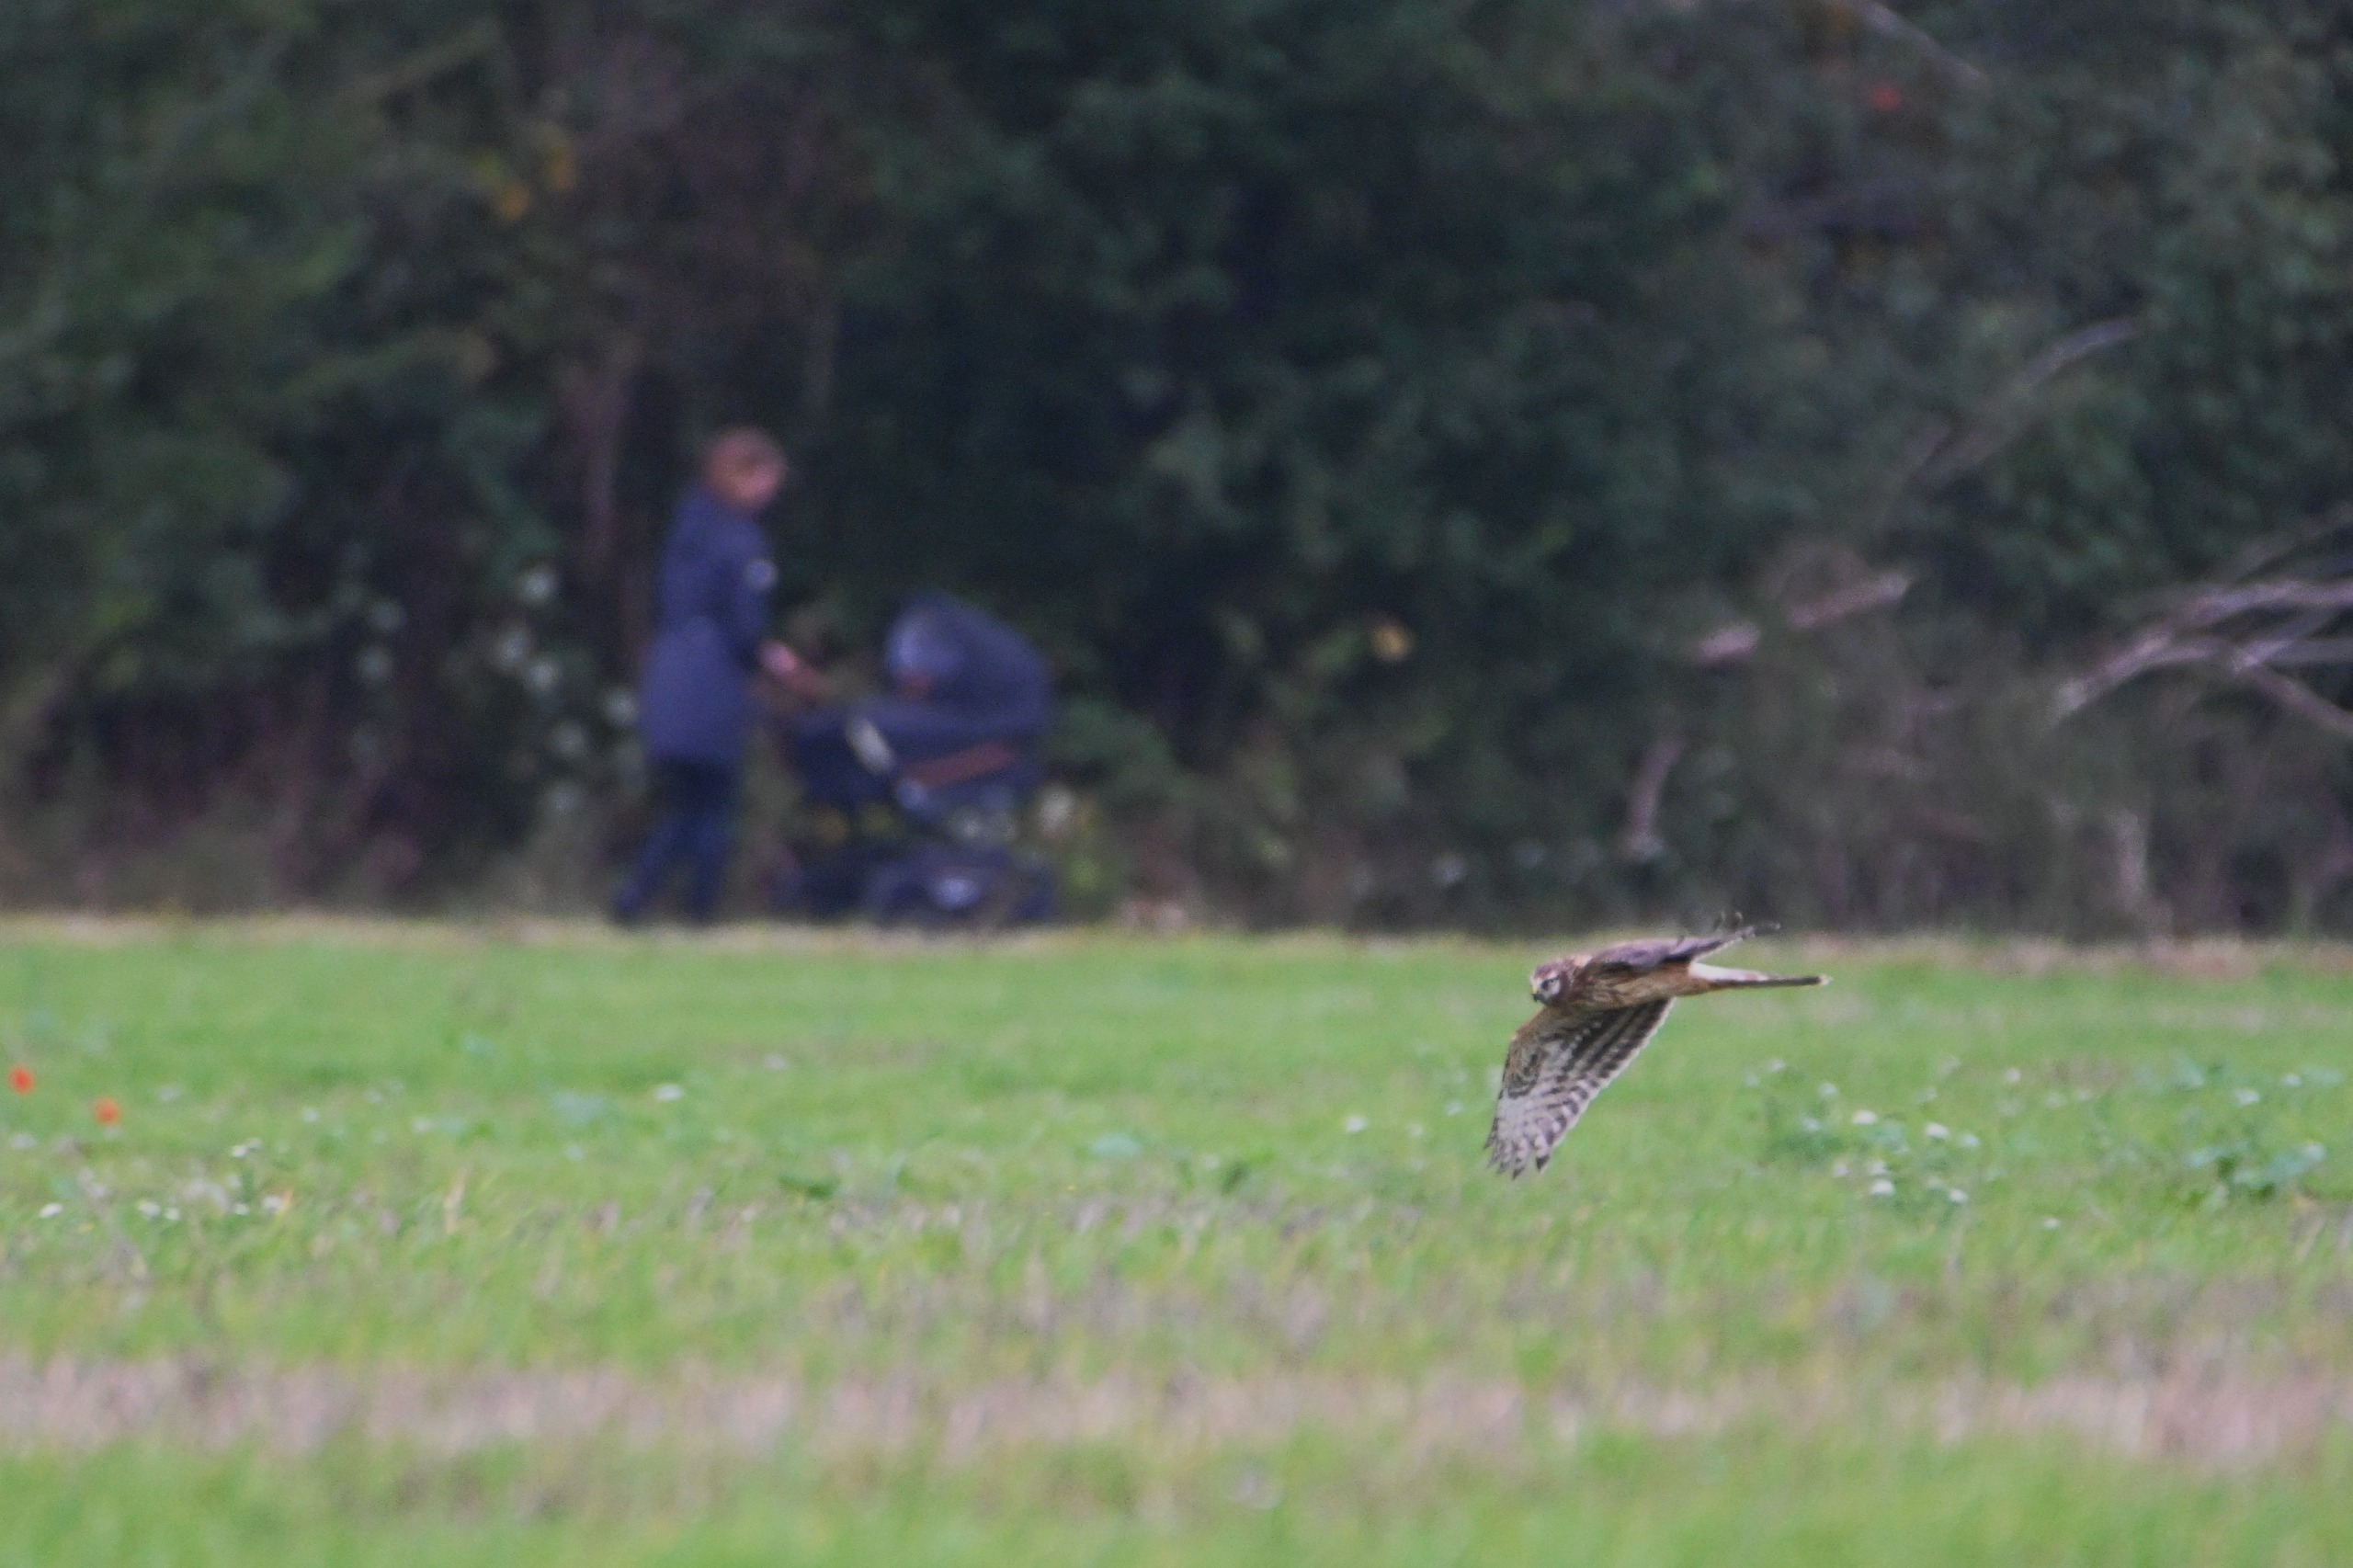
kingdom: Animalia
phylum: Chordata
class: Aves
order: Accipitriformes
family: Accipitridae
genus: Circus
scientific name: Circus cyaneus
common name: Blå kærhøg
